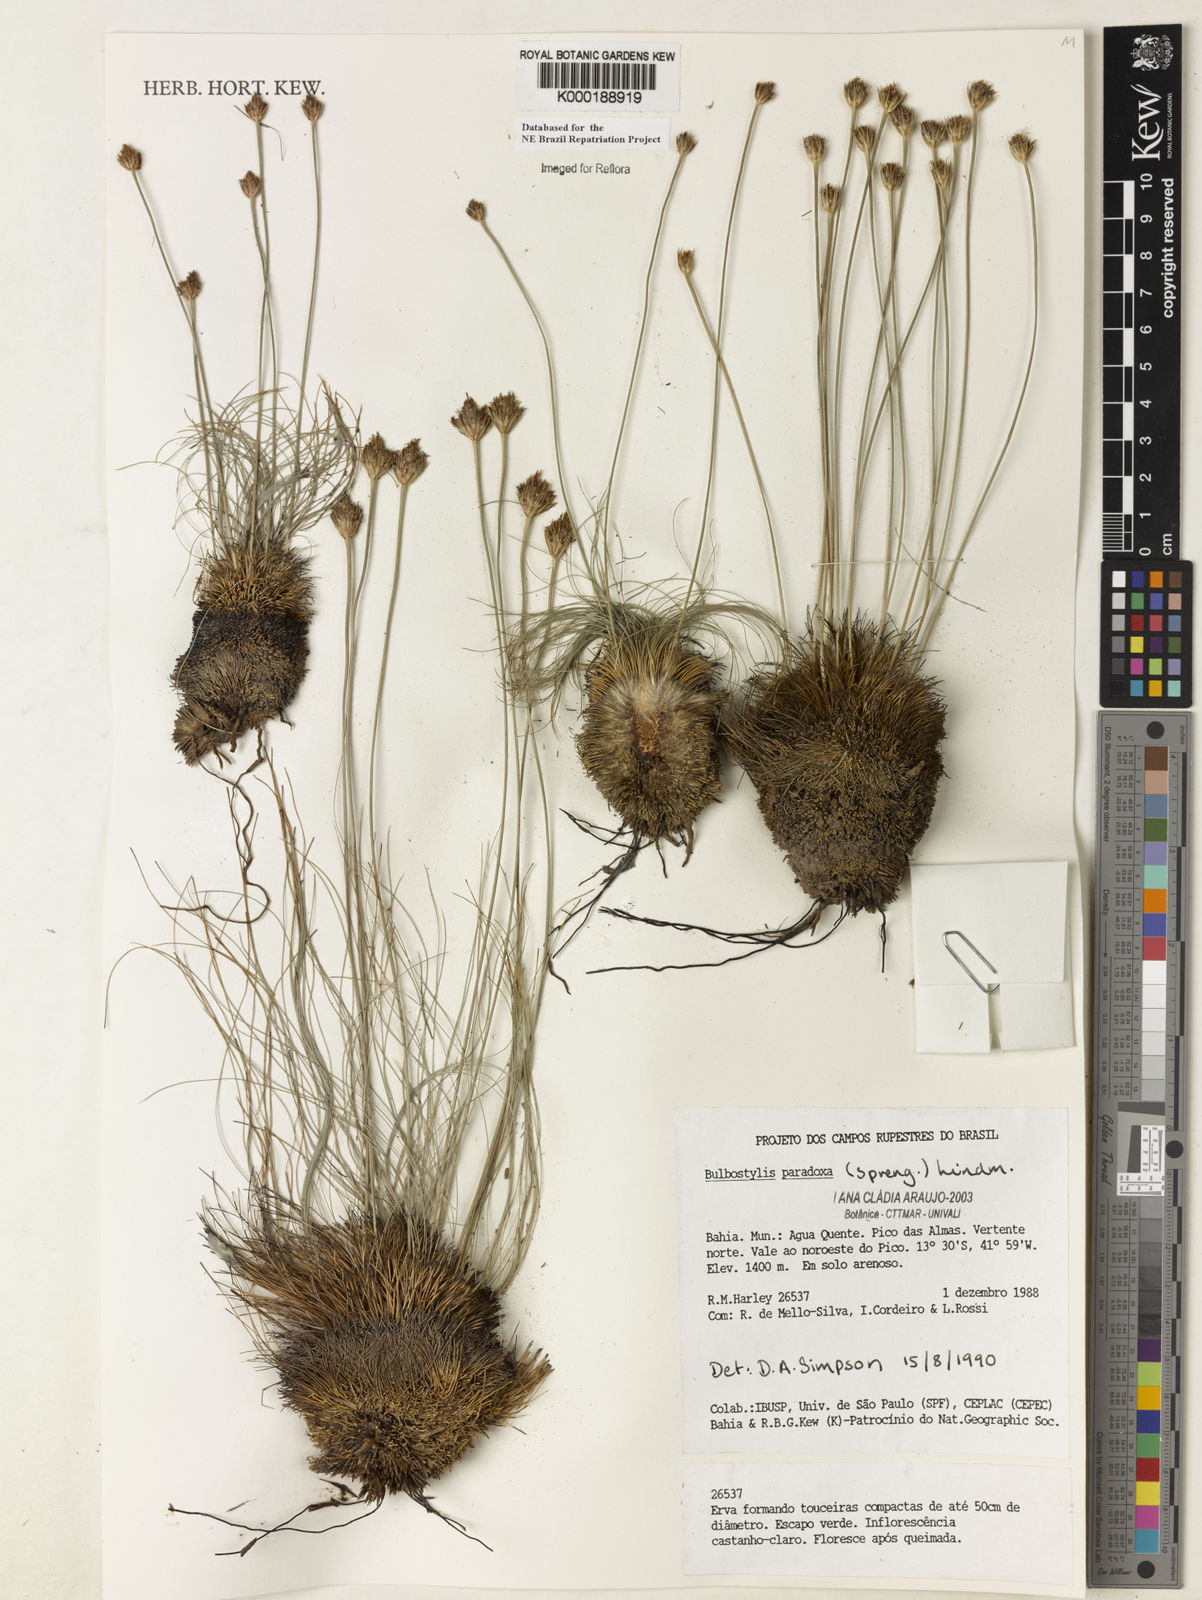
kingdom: Plantae
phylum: Tracheophyta
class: Liliopsida
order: Poales
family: Cyperaceae
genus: Bulbostylis
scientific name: Bulbostylis paradoxa
